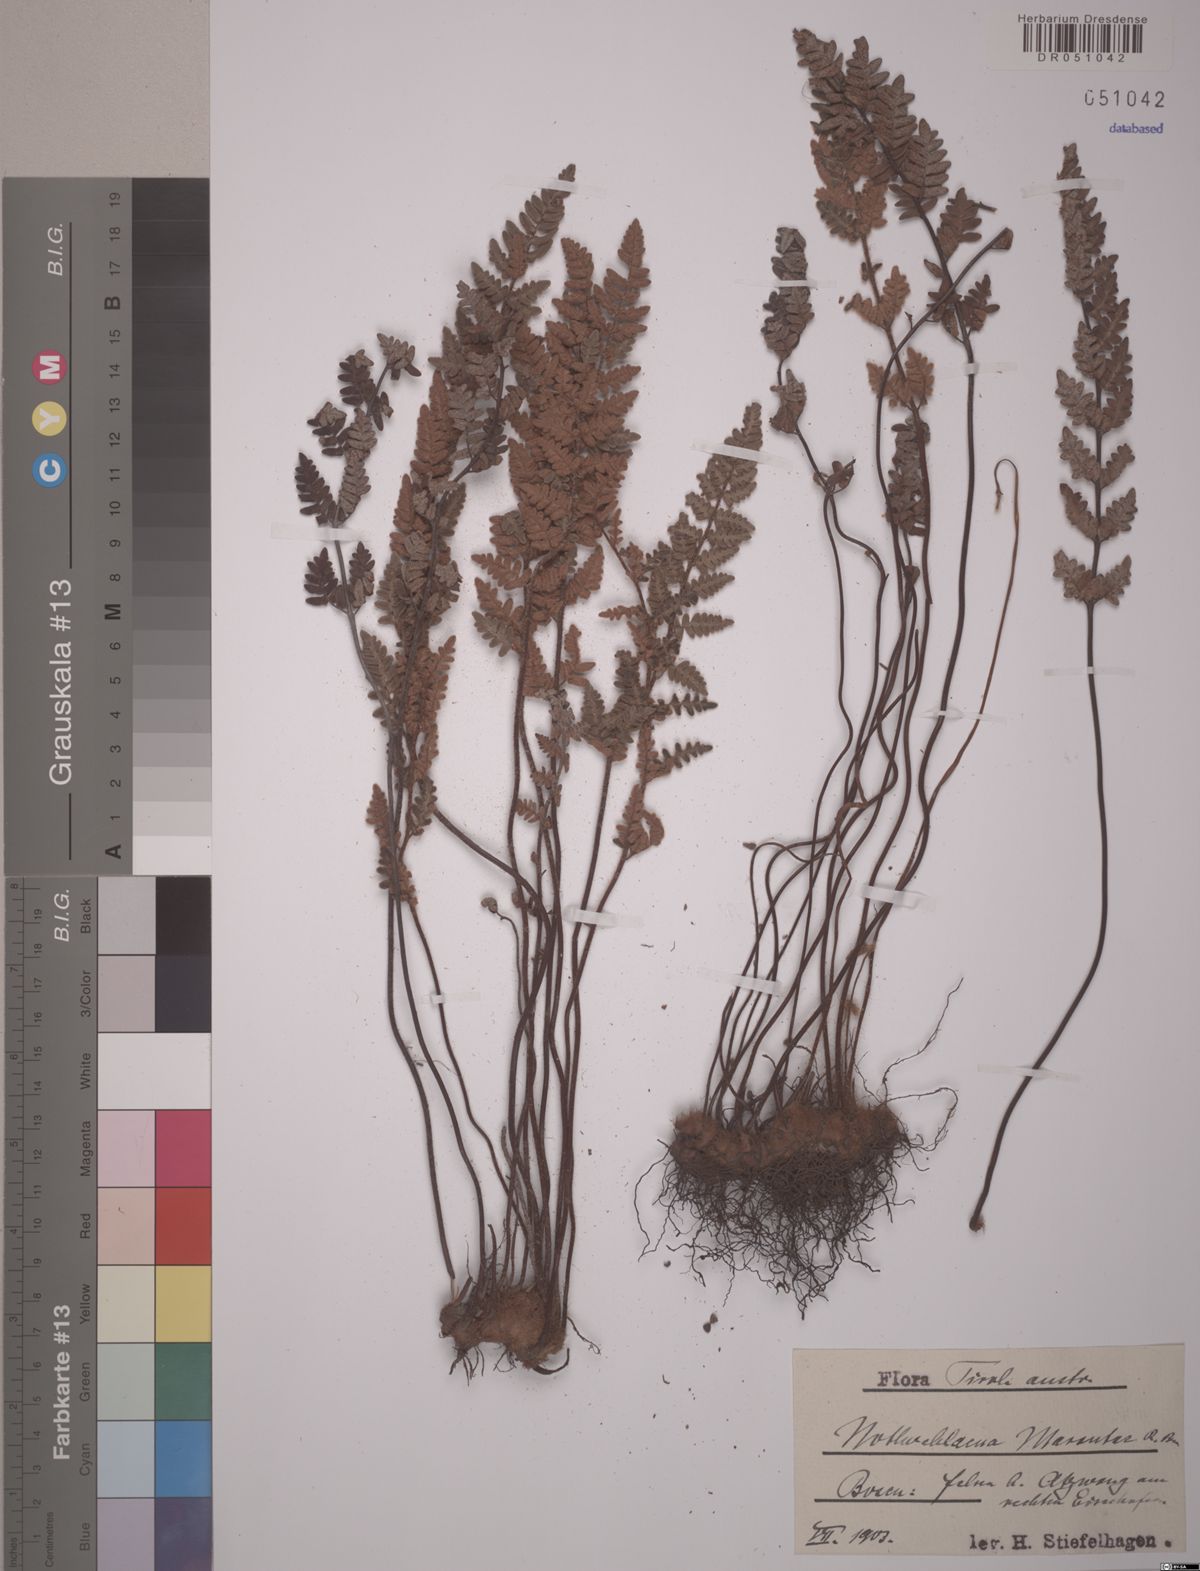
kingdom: Plantae
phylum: Tracheophyta
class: Polypodiopsida
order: Polypodiales
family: Pteridaceae
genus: Paragymnopteris
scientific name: Paragymnopteris marantae
